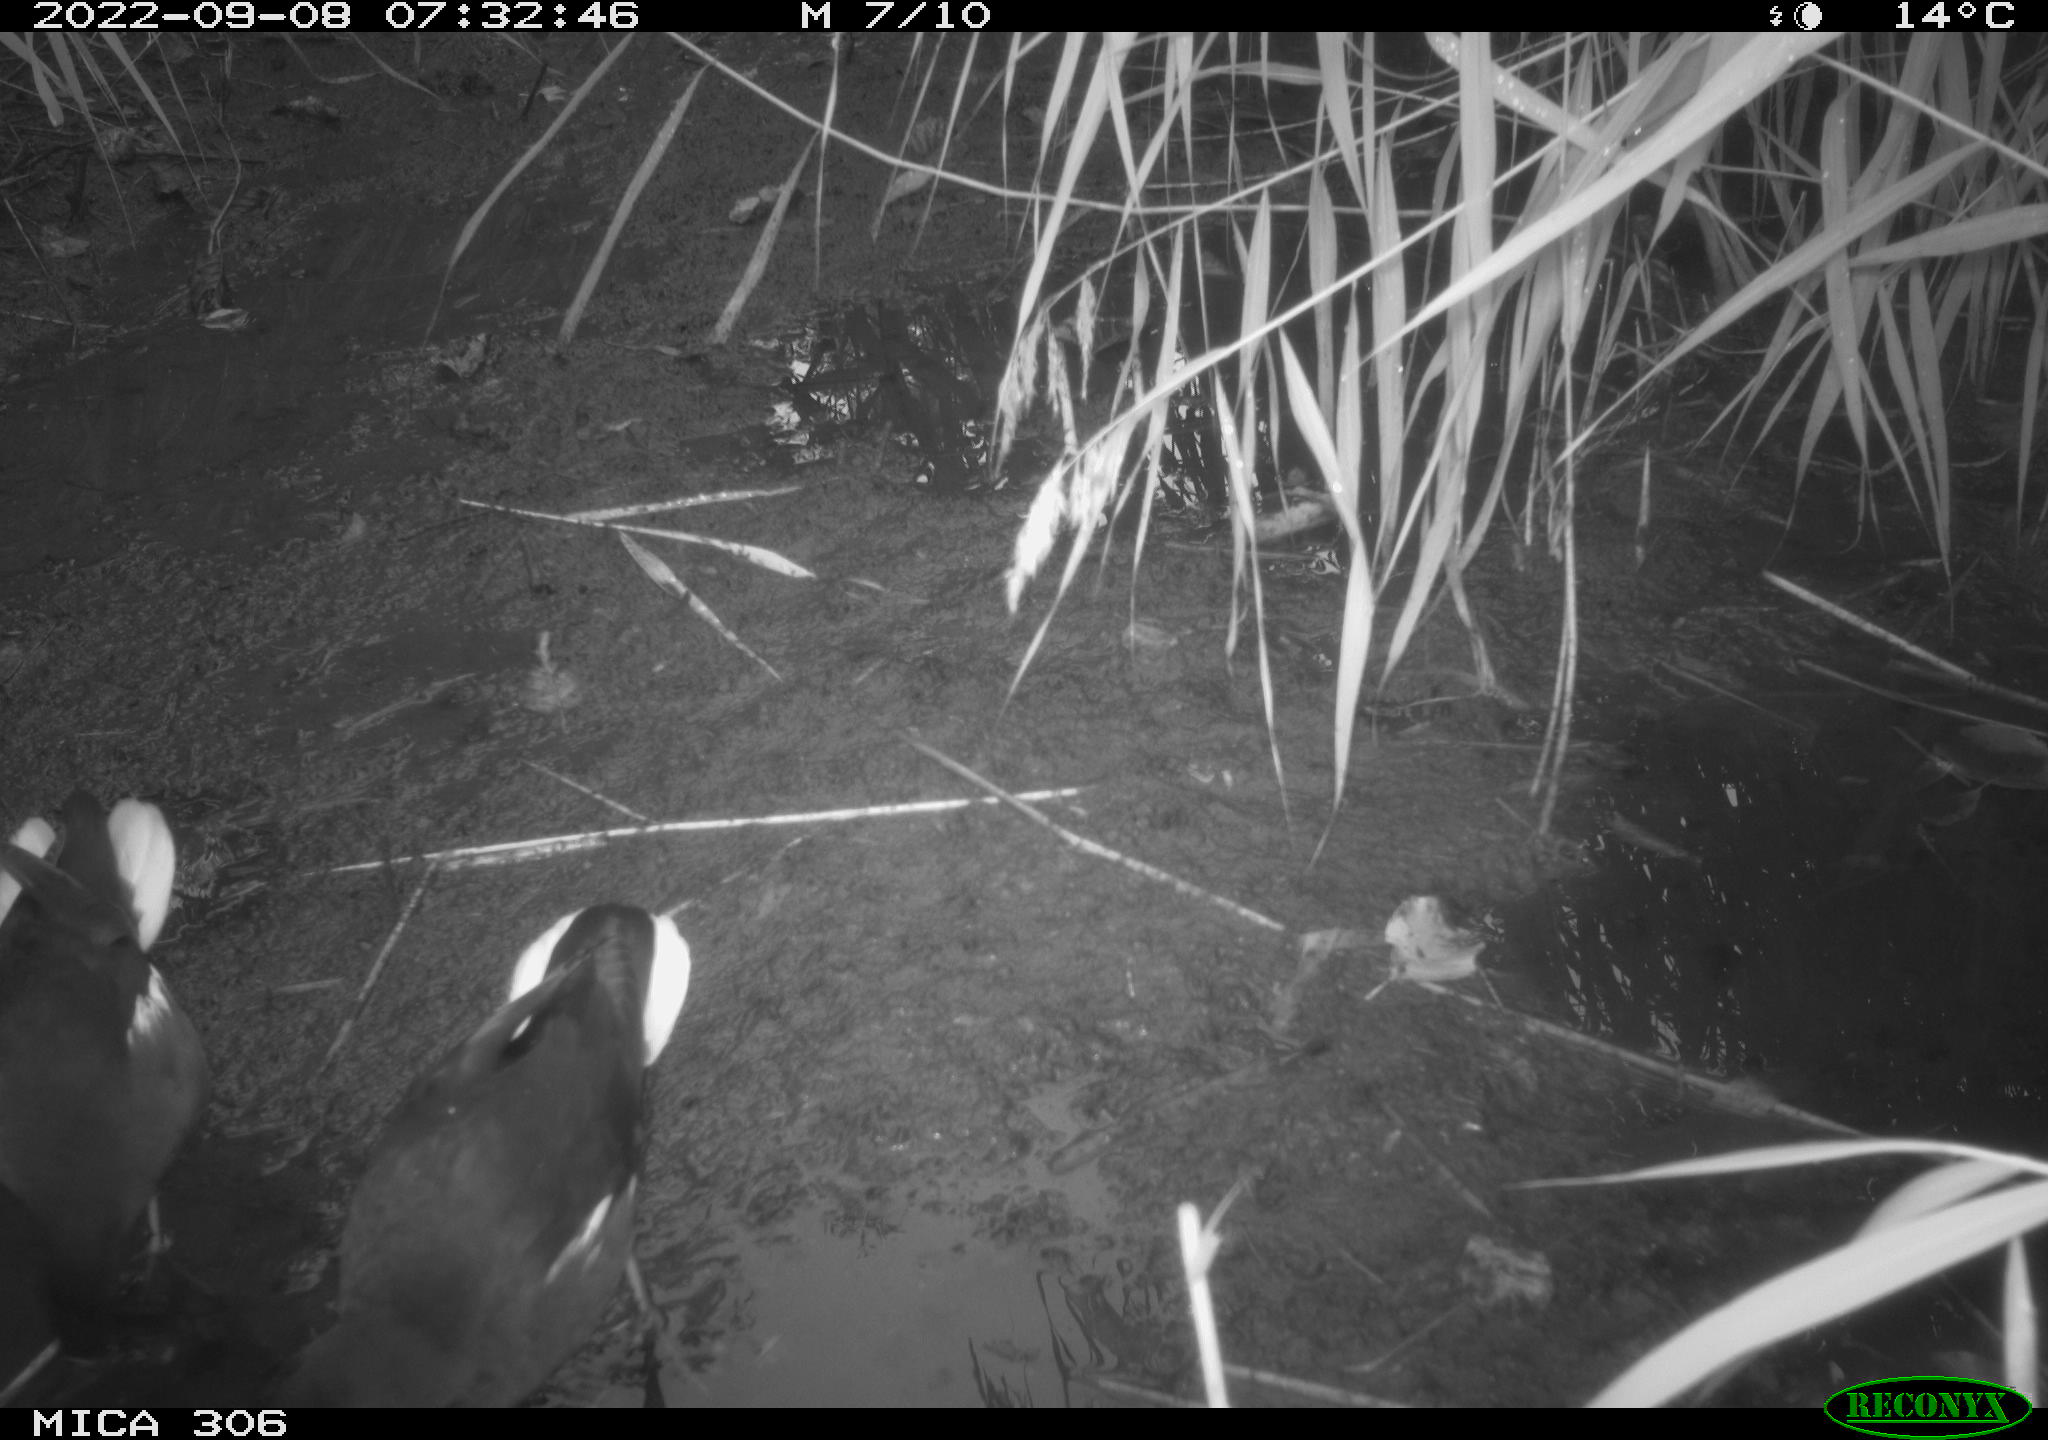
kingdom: Animalia
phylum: Chordata
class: Aves
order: Gruiformes
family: Rallidae
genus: Gallinula
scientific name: Gallinula chloropus
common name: Common moorhen
